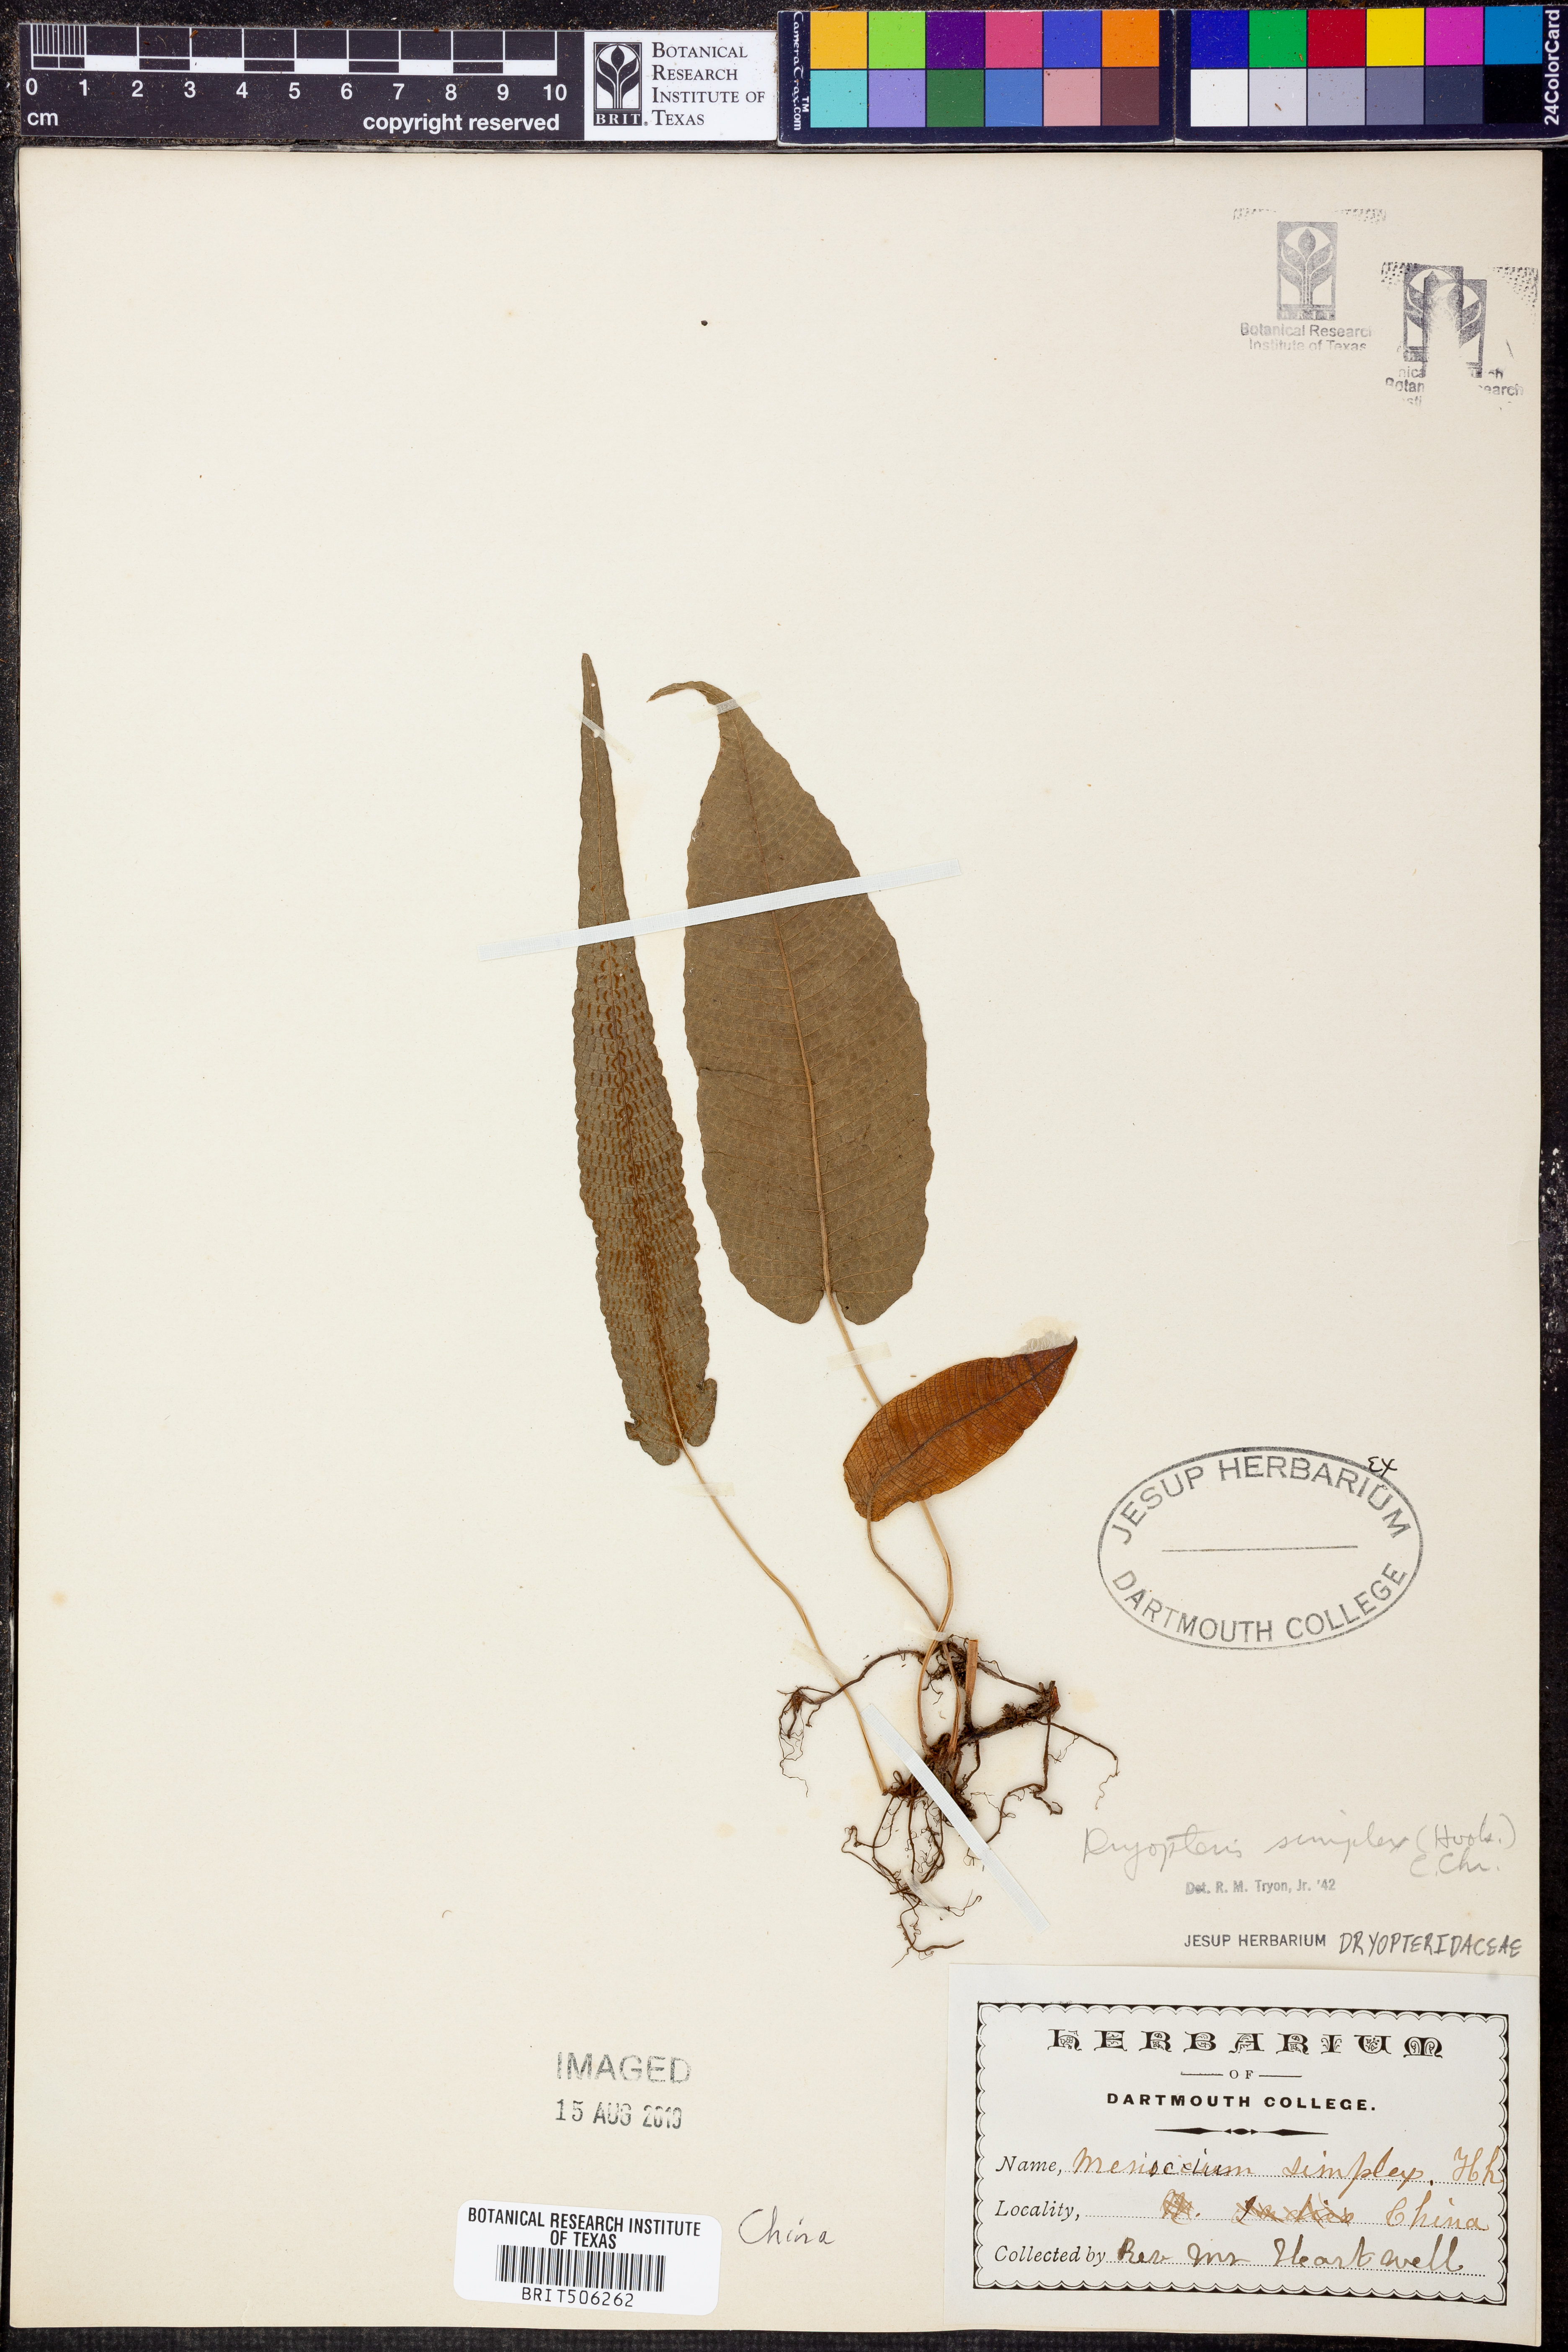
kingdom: Plantae
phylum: Tracheophyta
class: Polypodiopsida
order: Polypodiales
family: Thelypteridaceae
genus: Grypothrix
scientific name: Grypothrix simplex
